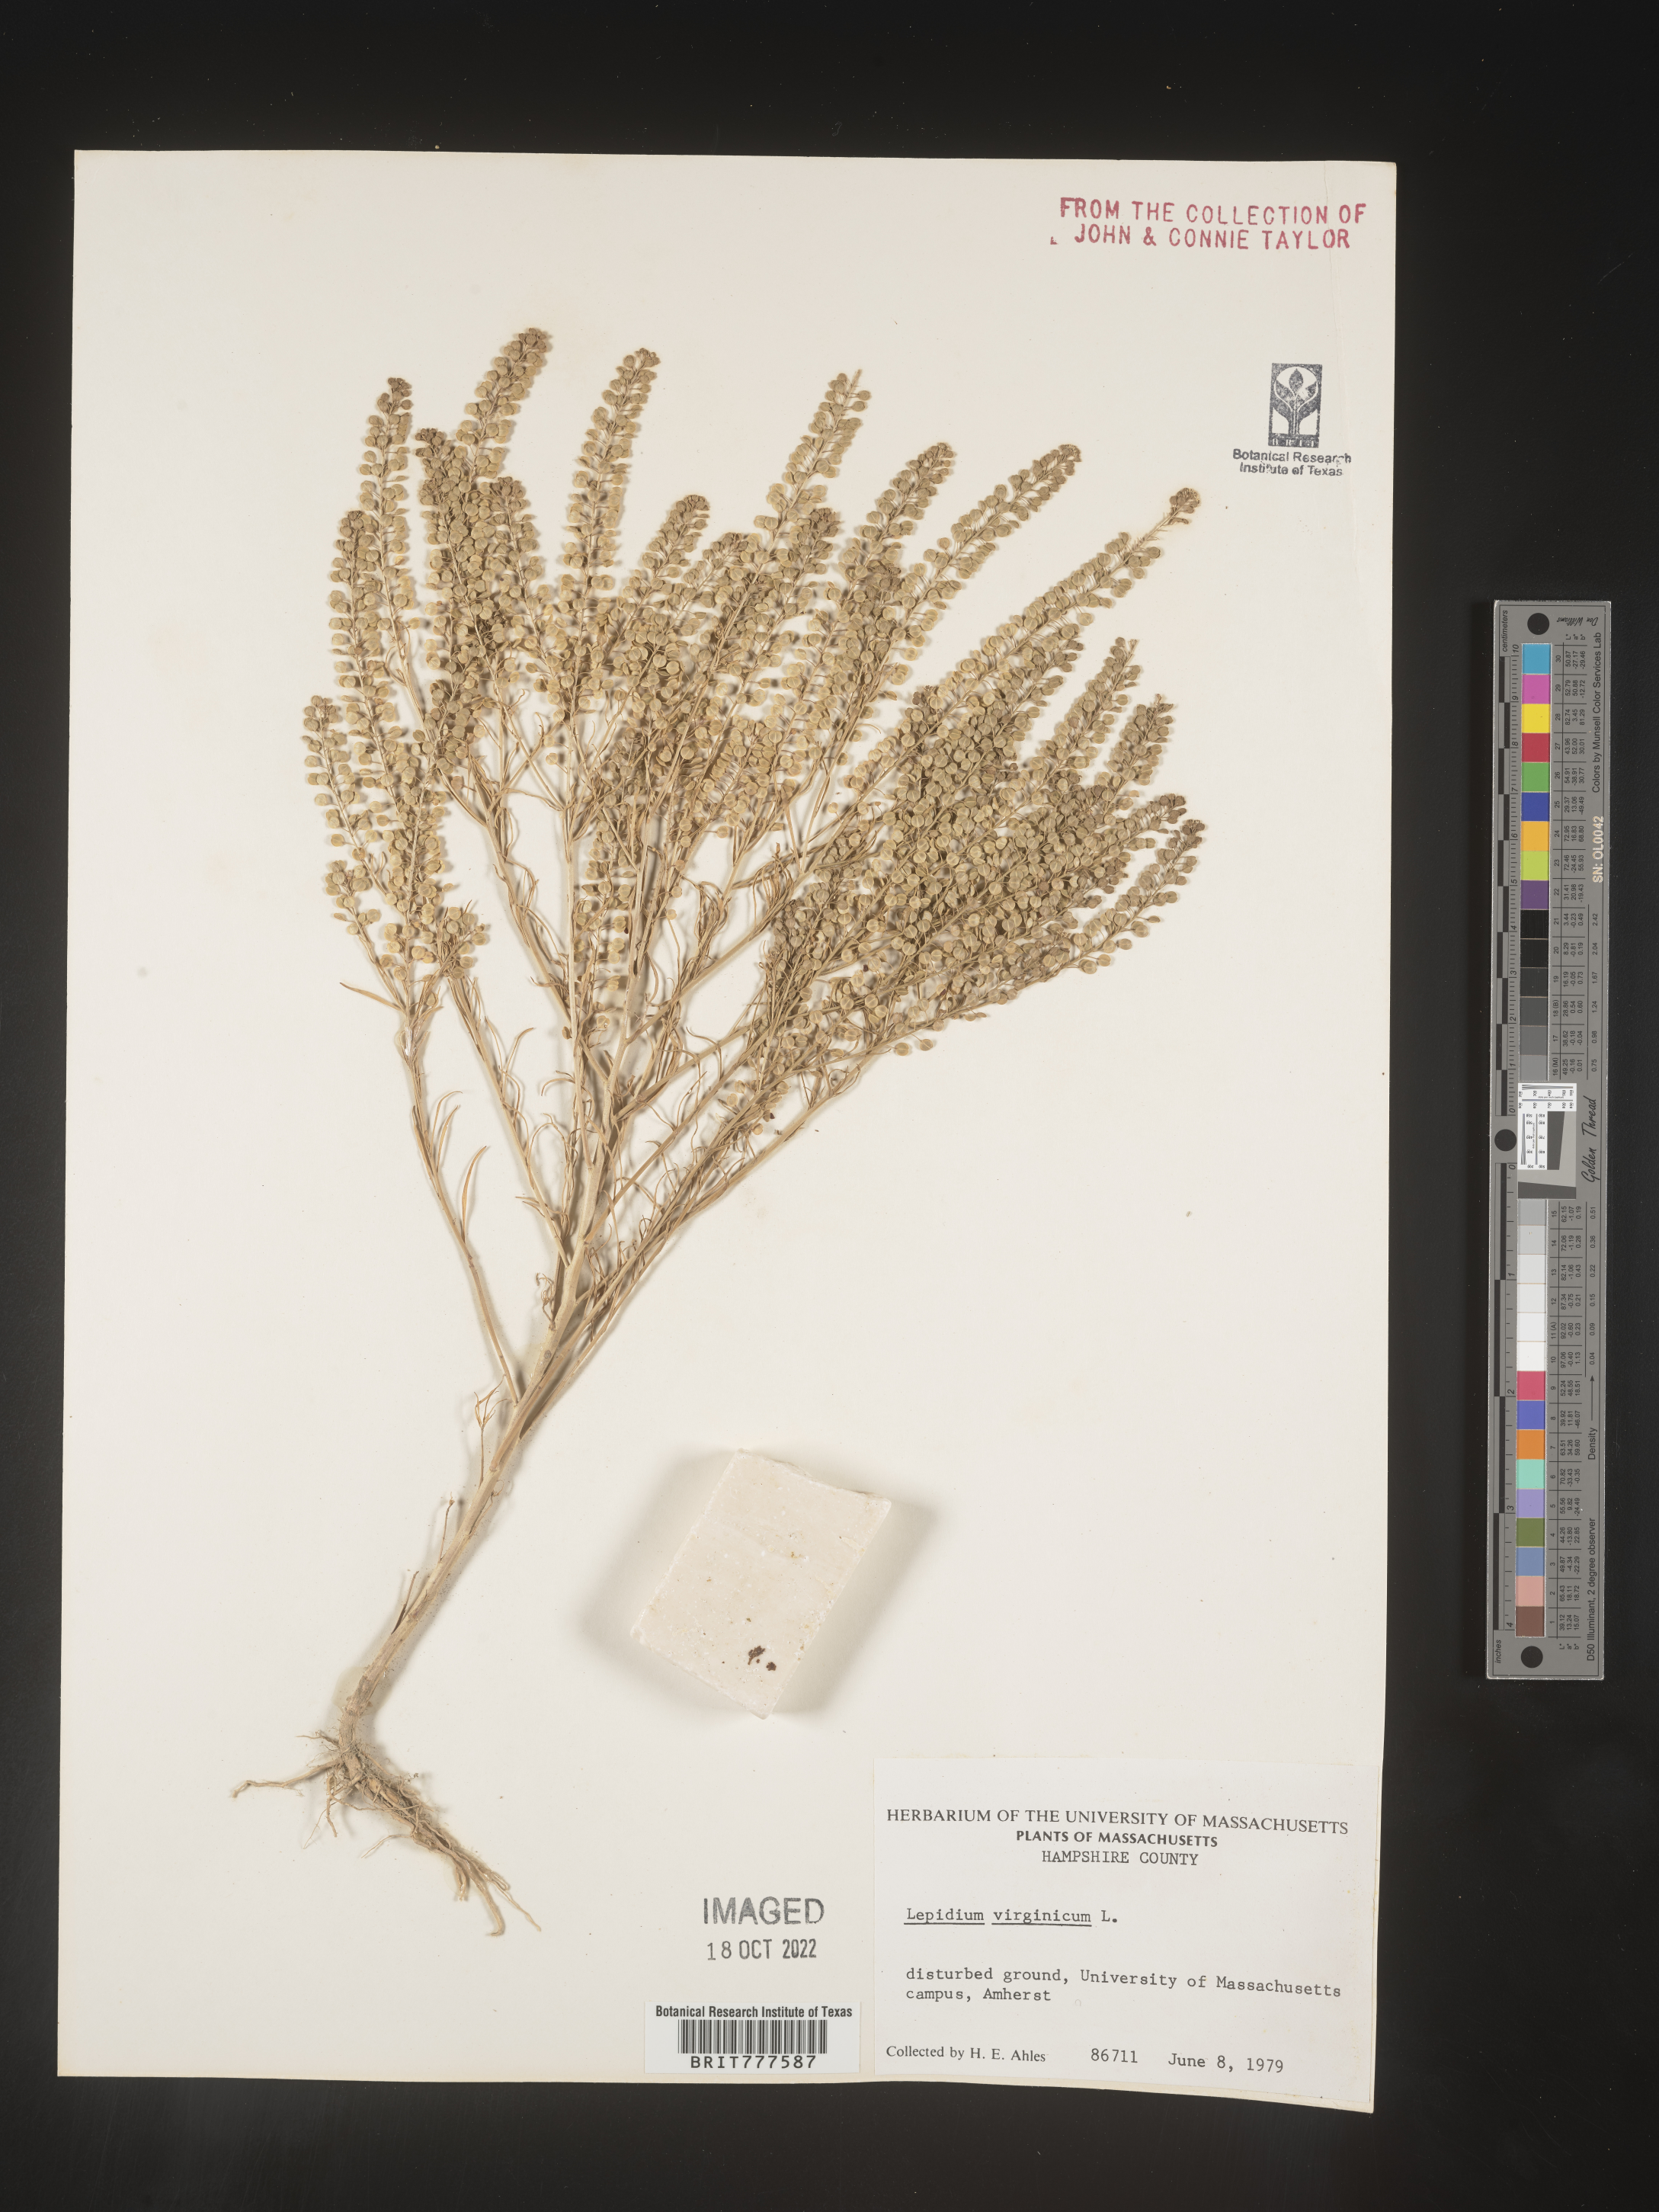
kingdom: Plantae
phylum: Tracheophyta
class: Magnoliopsida
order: Brassicales
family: Brassicaceae
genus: Lepidium
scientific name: Lepidium virginicum
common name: Least pepperwort
